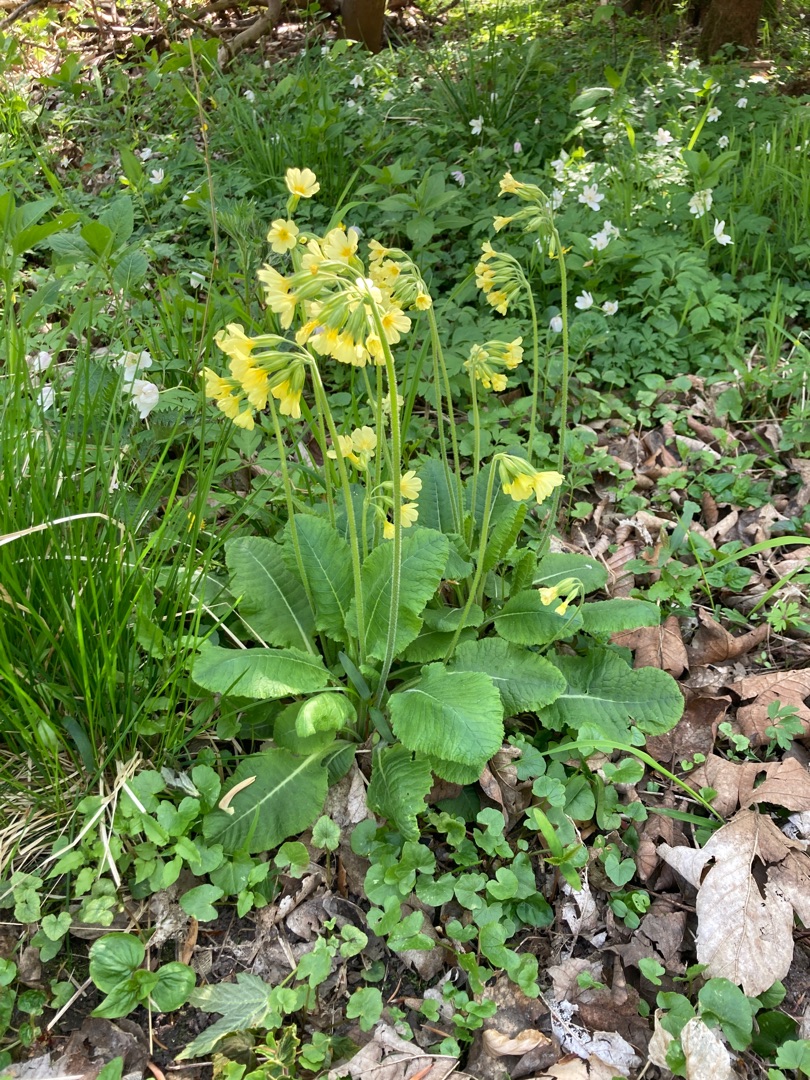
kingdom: Plantae
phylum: Tracheophyta
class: Magnoliopsida
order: Ericales
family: Primulaceae
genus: Primula
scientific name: Primula elatior
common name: Fladkravet kodriver
